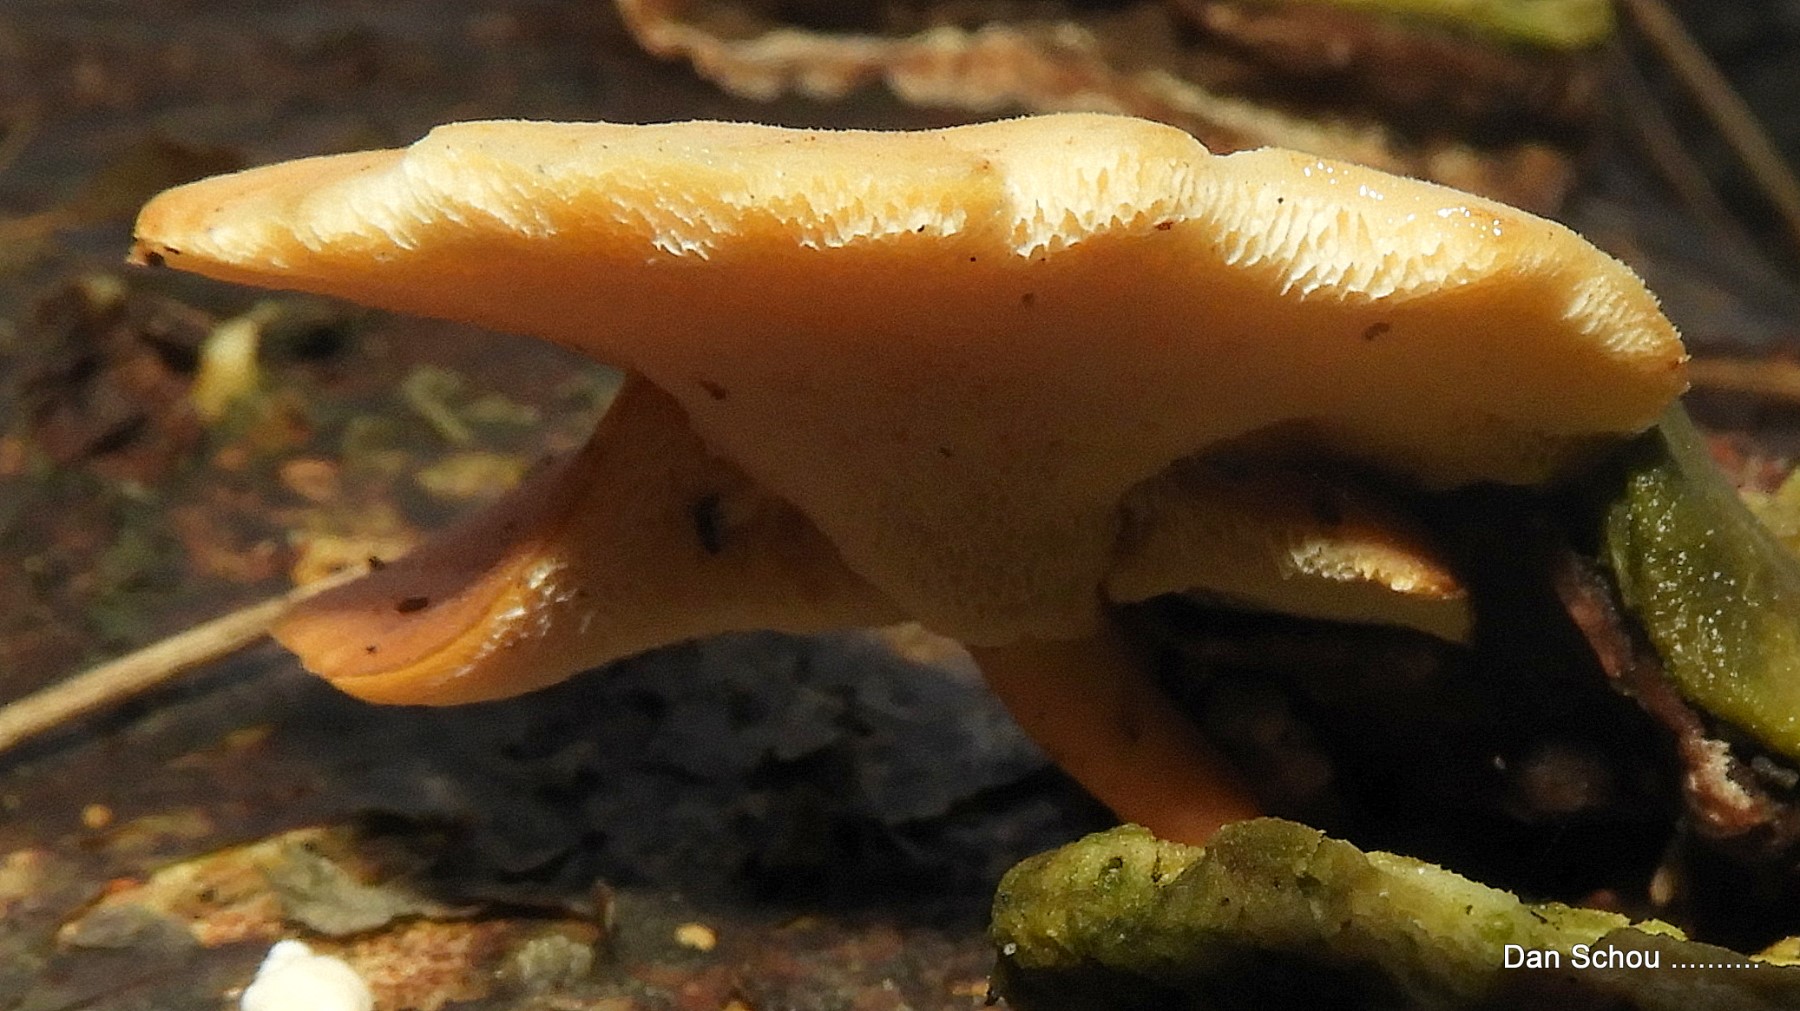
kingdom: Fungi
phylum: Basidiomycota
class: Agaricomycetes
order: Polyporales
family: Polyporaceae
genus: Lentinus
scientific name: Lentinus brumalis
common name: vinter-stilkporesvamp
